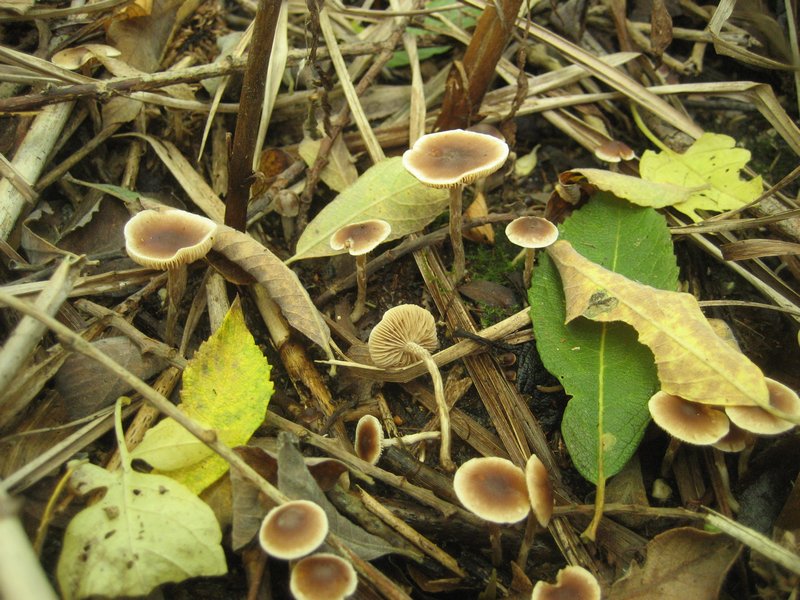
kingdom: Fungi
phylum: Basidiomycota
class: Agaricomycetes
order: Agaricales
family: Hymenogastraceae
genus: Hebeloma
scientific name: Hebeloma nigellum
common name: sortbrun tåreblad
